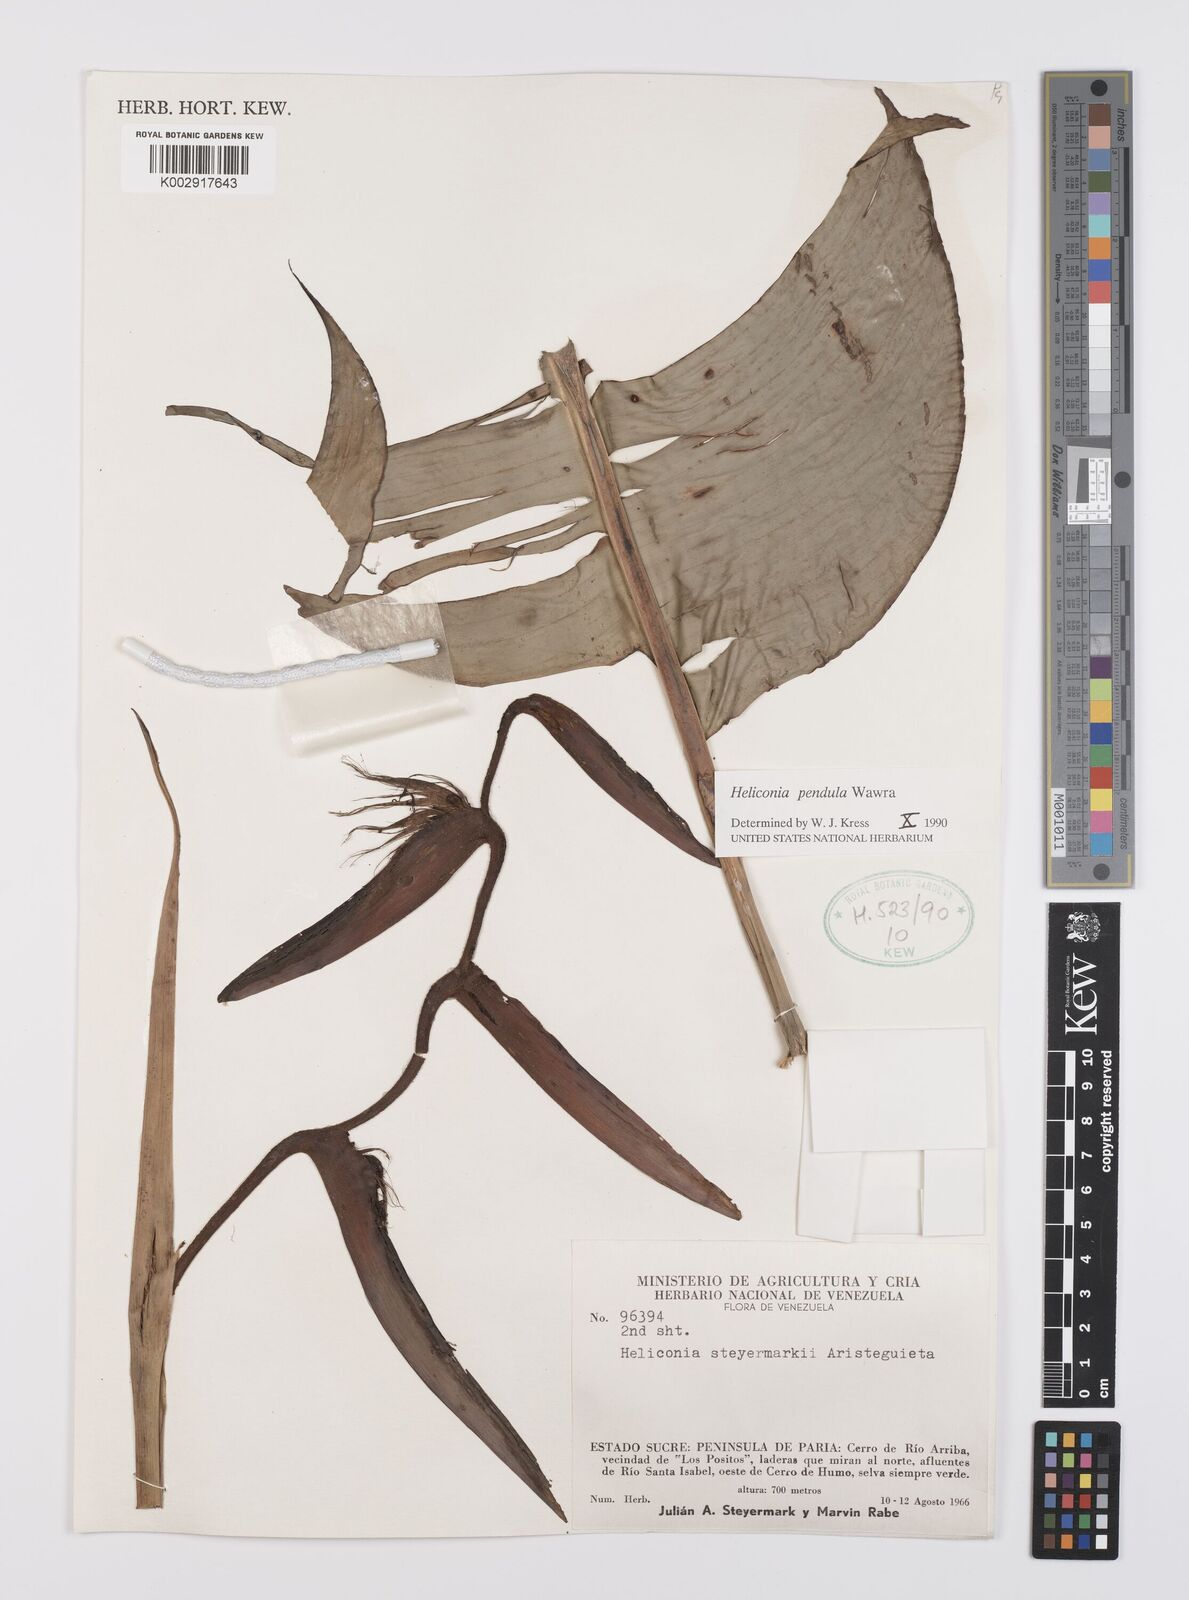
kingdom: Plantae
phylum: Tracheophyta
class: Liliopsida
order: Zingiberales
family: Heliconiaceae
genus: Heliconia
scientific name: Heliconia pendula
